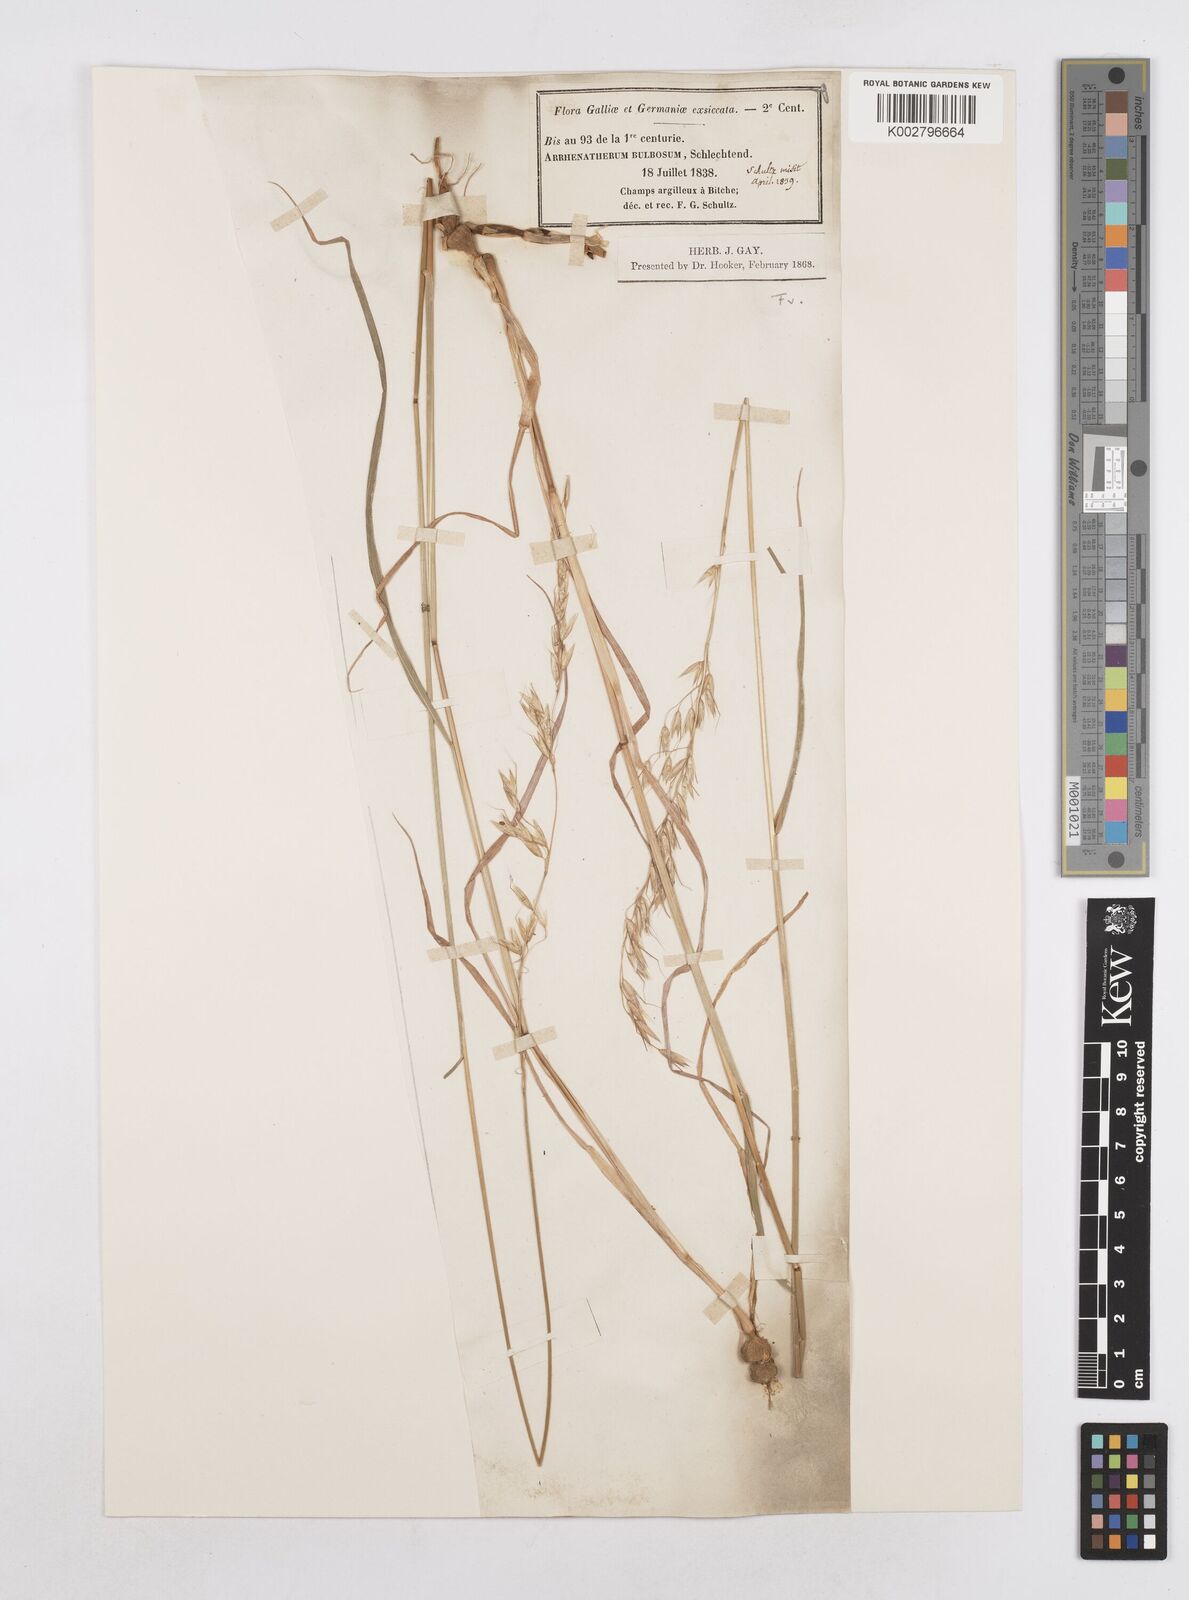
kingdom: Plantae
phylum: Tracheophyta
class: Liliopsida
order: Poales
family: Poaceae
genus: Arrhenatherum
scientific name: Arrhenatherum elatius
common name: Tall oatgrass
